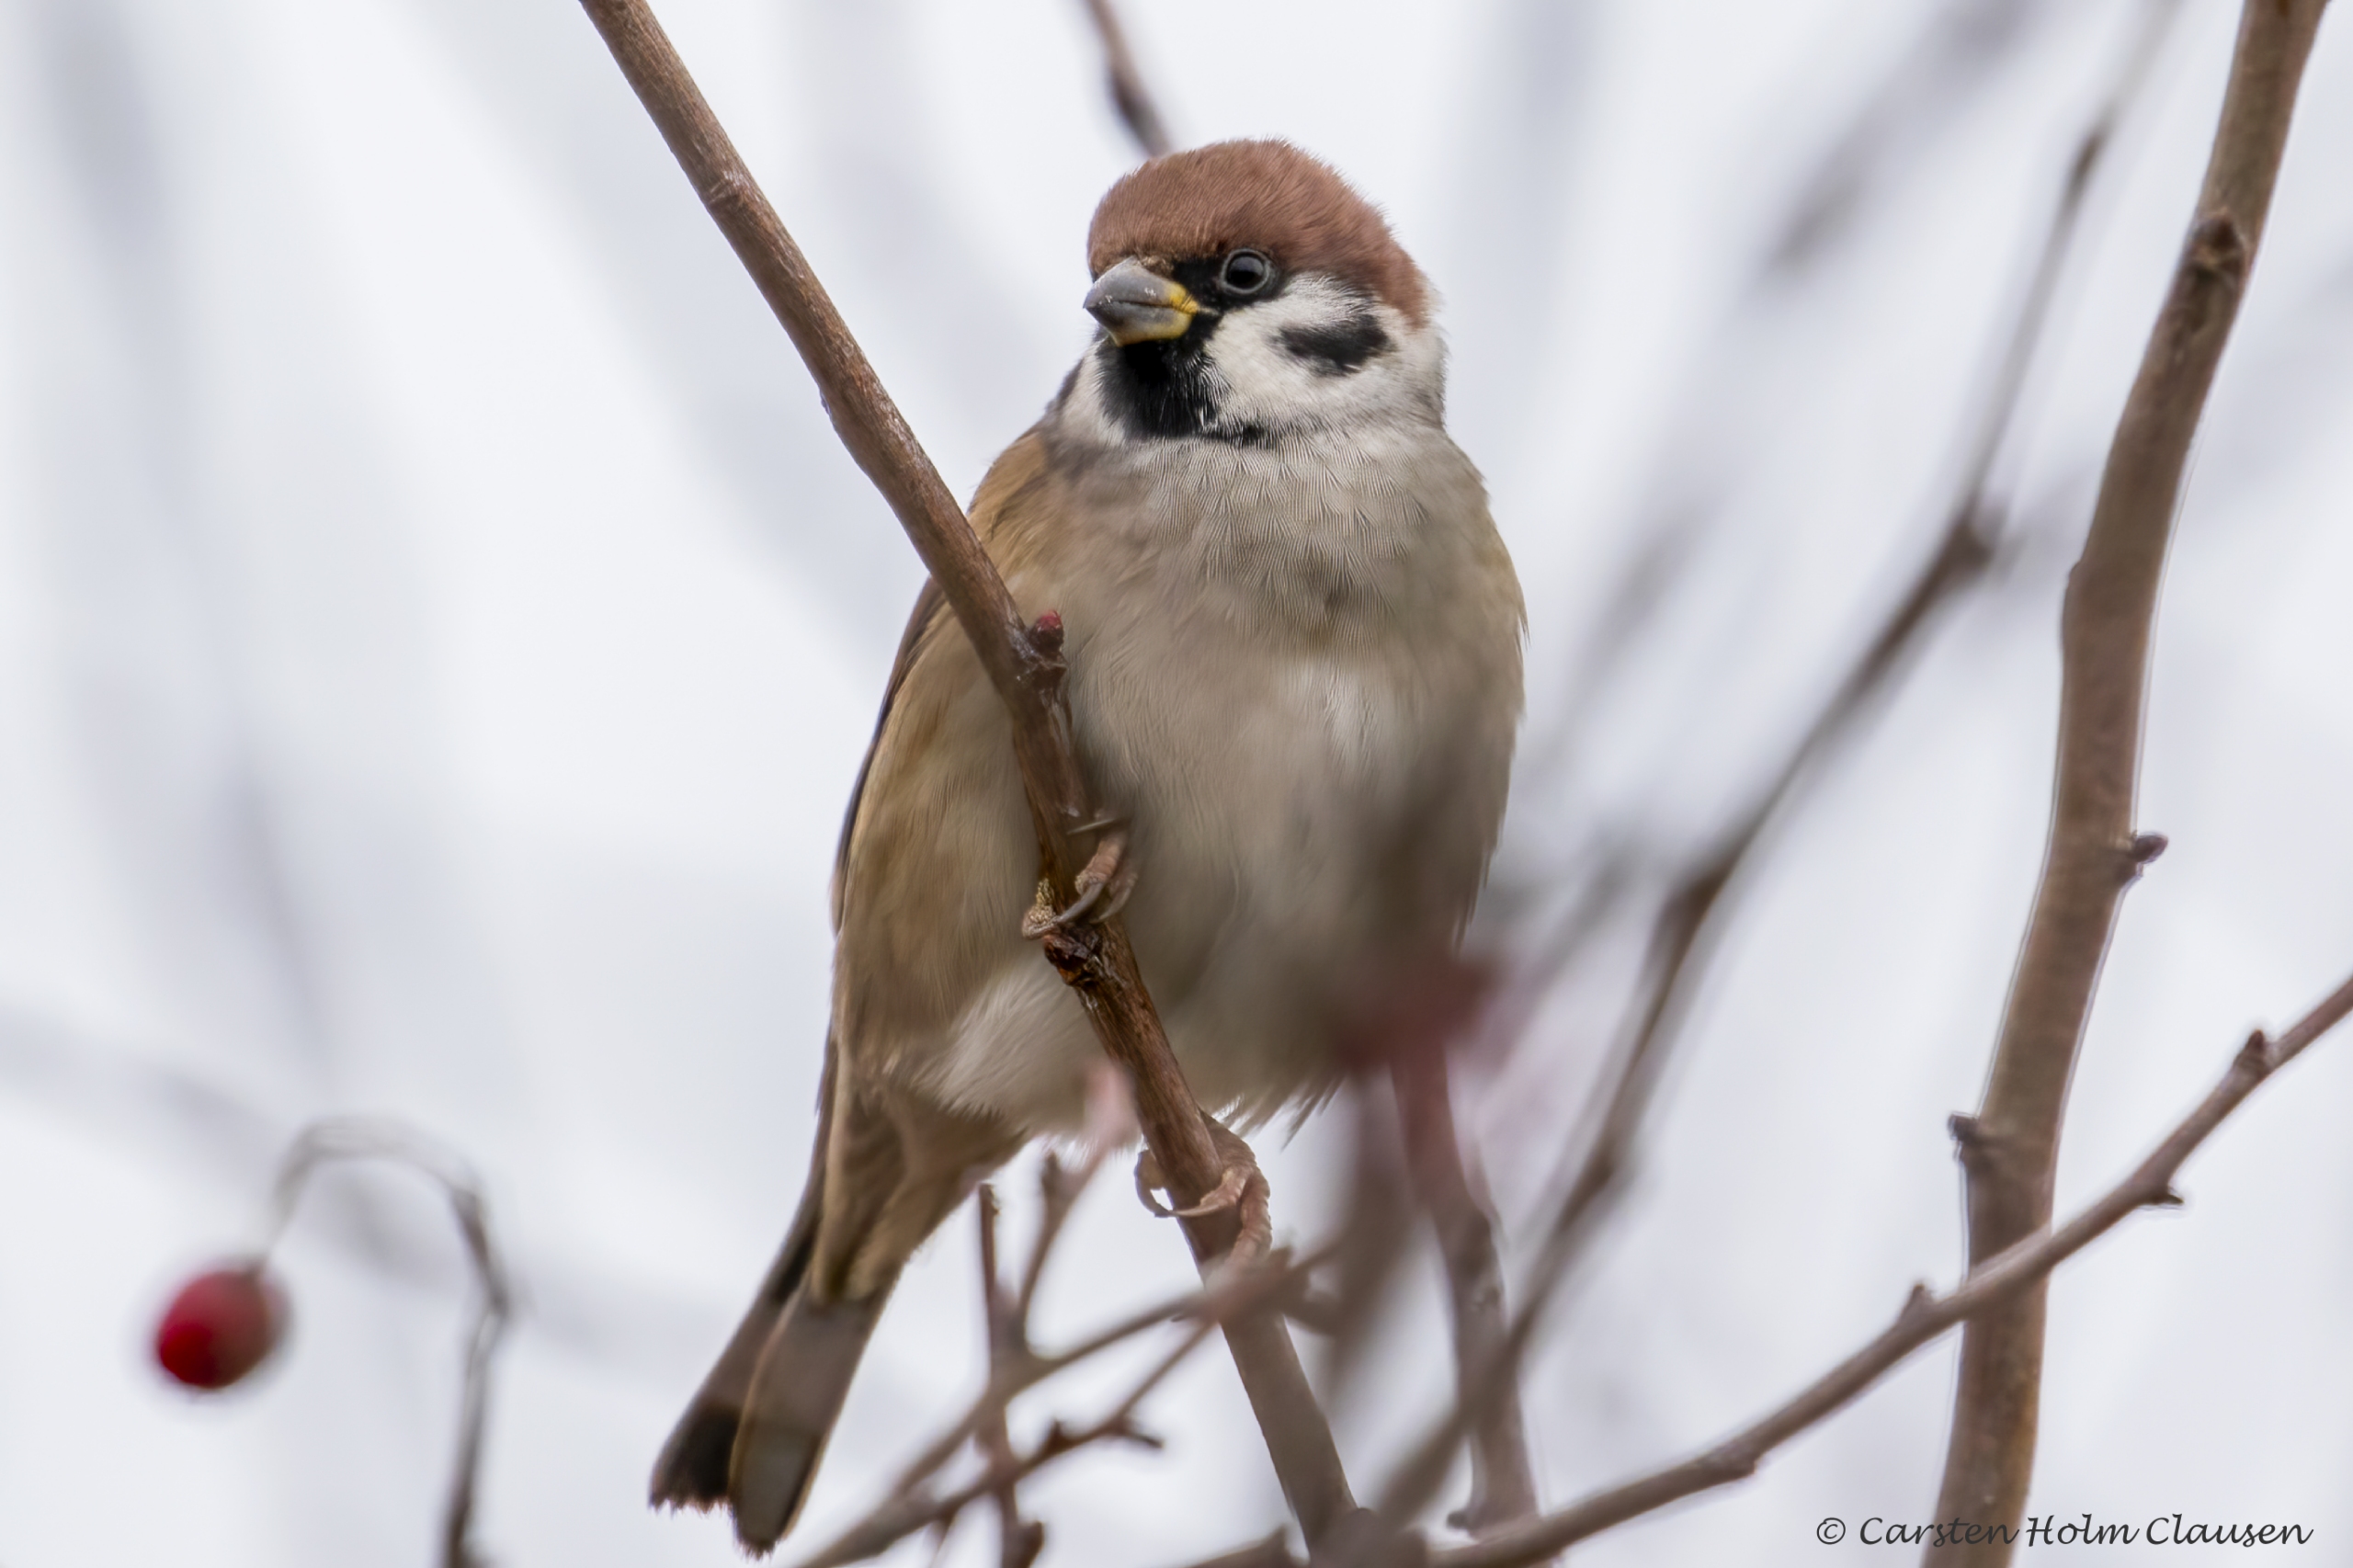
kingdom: Animalia
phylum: Chordata
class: Aves
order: Passeriformes
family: Passeridae
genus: Passer
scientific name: Passer montanus
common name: Skovspurv
